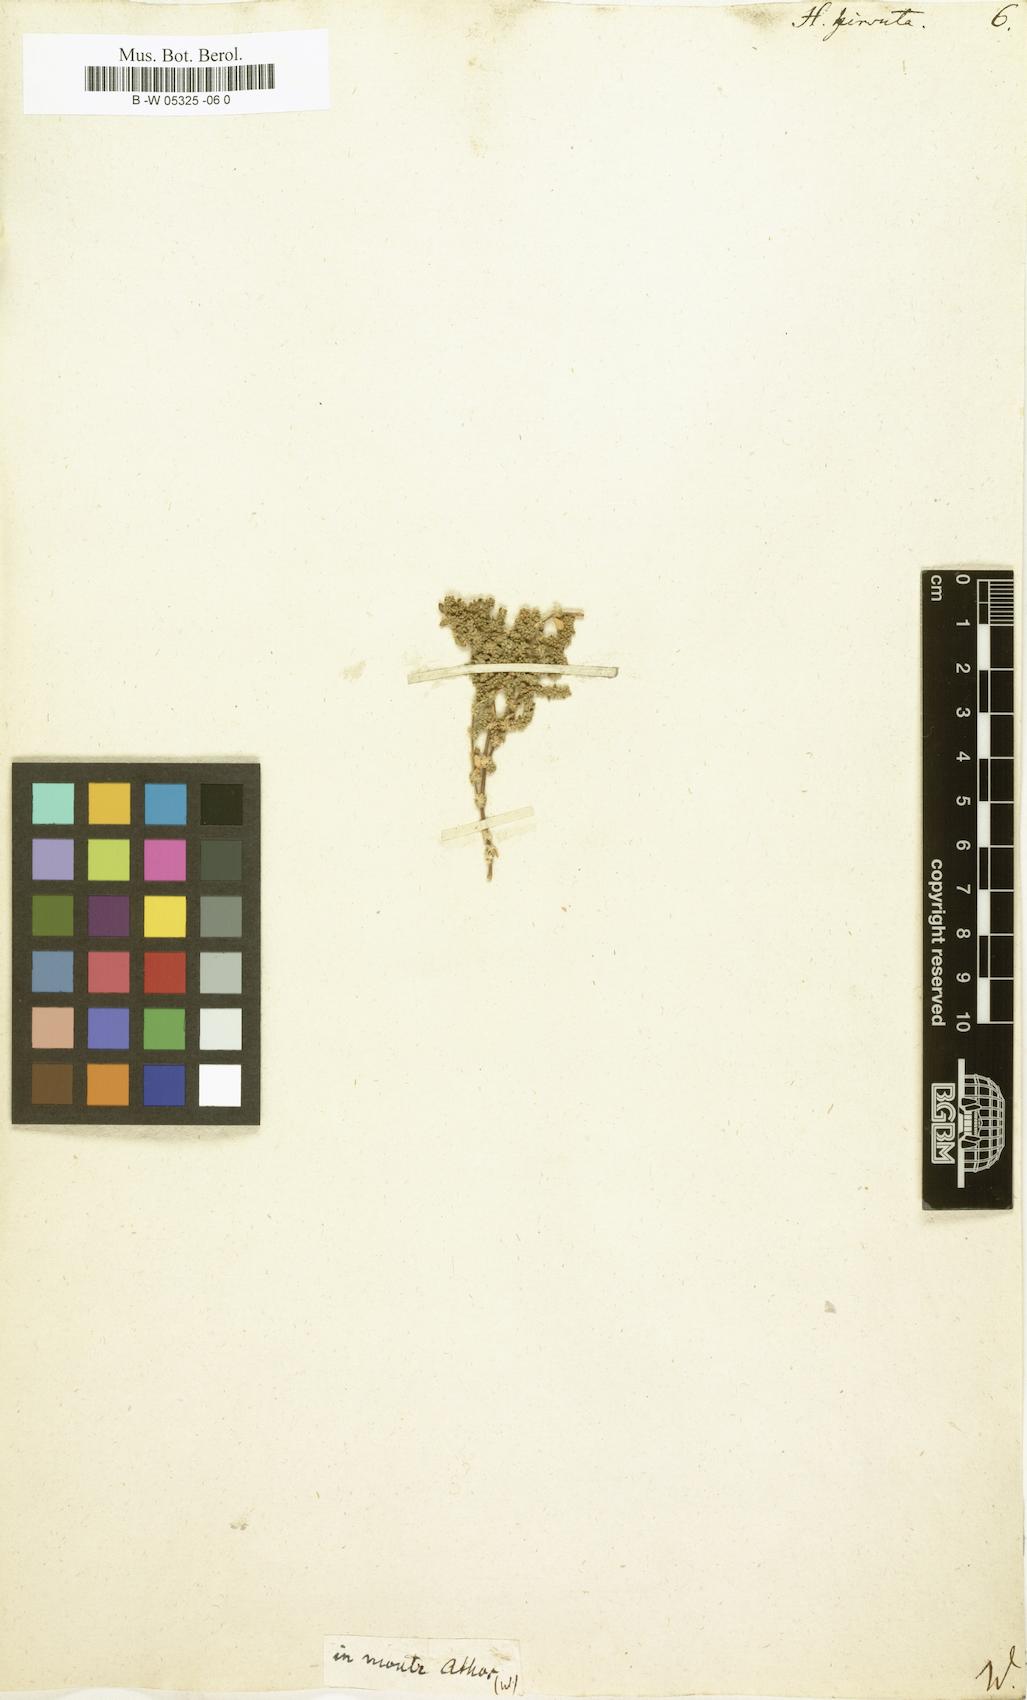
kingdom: Plantae
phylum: Tracheophyta
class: Magnoliopsida
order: Caryophyllales
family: Caryophyllaceae
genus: Herniaria
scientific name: Herniaria hirsuta
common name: Hairy rupturewort
